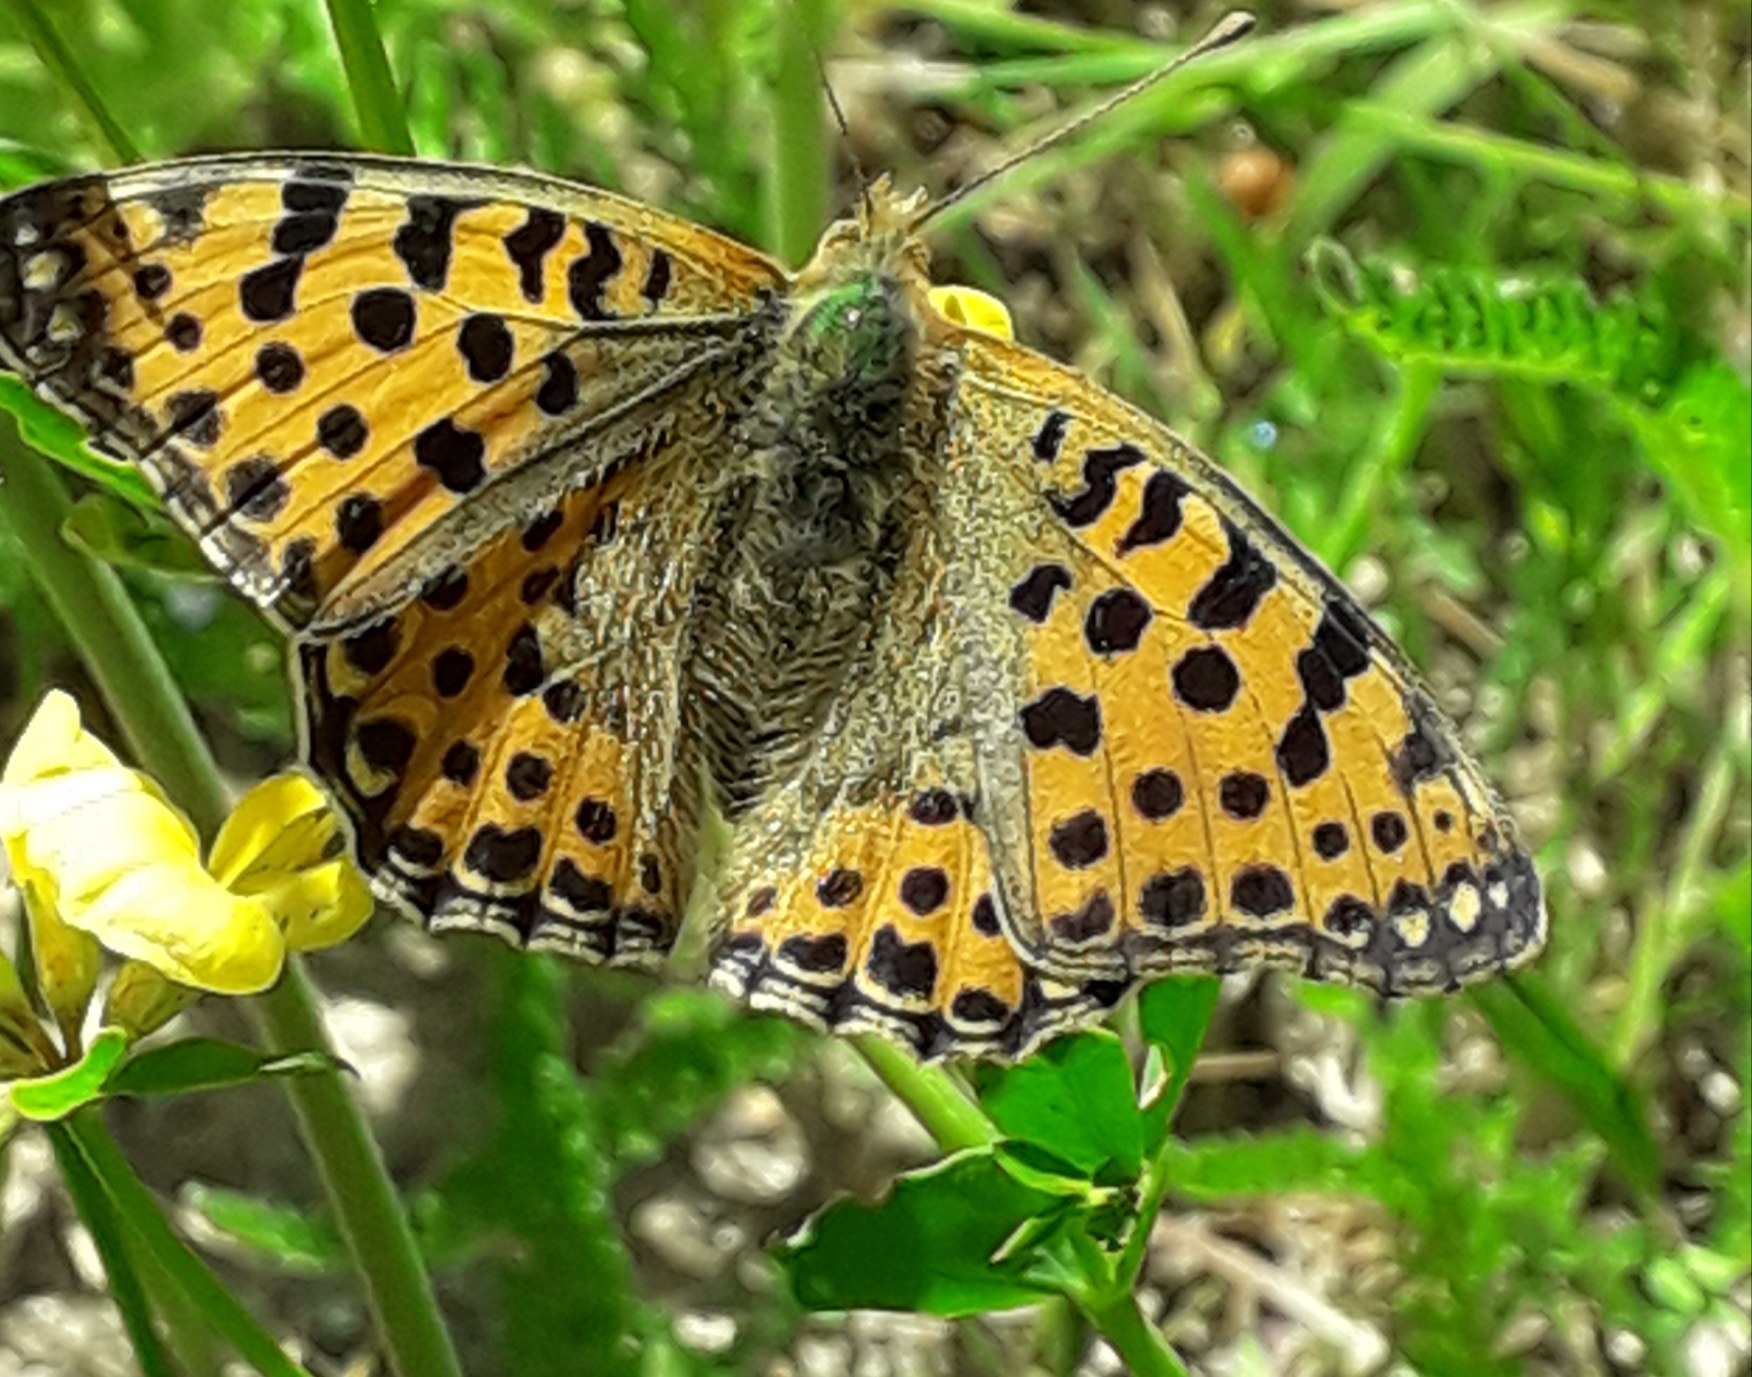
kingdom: Animalia
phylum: Arthropoda
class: Insecta
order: Lepidoptera
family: Nymphalidae
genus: Issoria
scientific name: Issoria lathonia
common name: Storplettet perlemorsommerfugl
